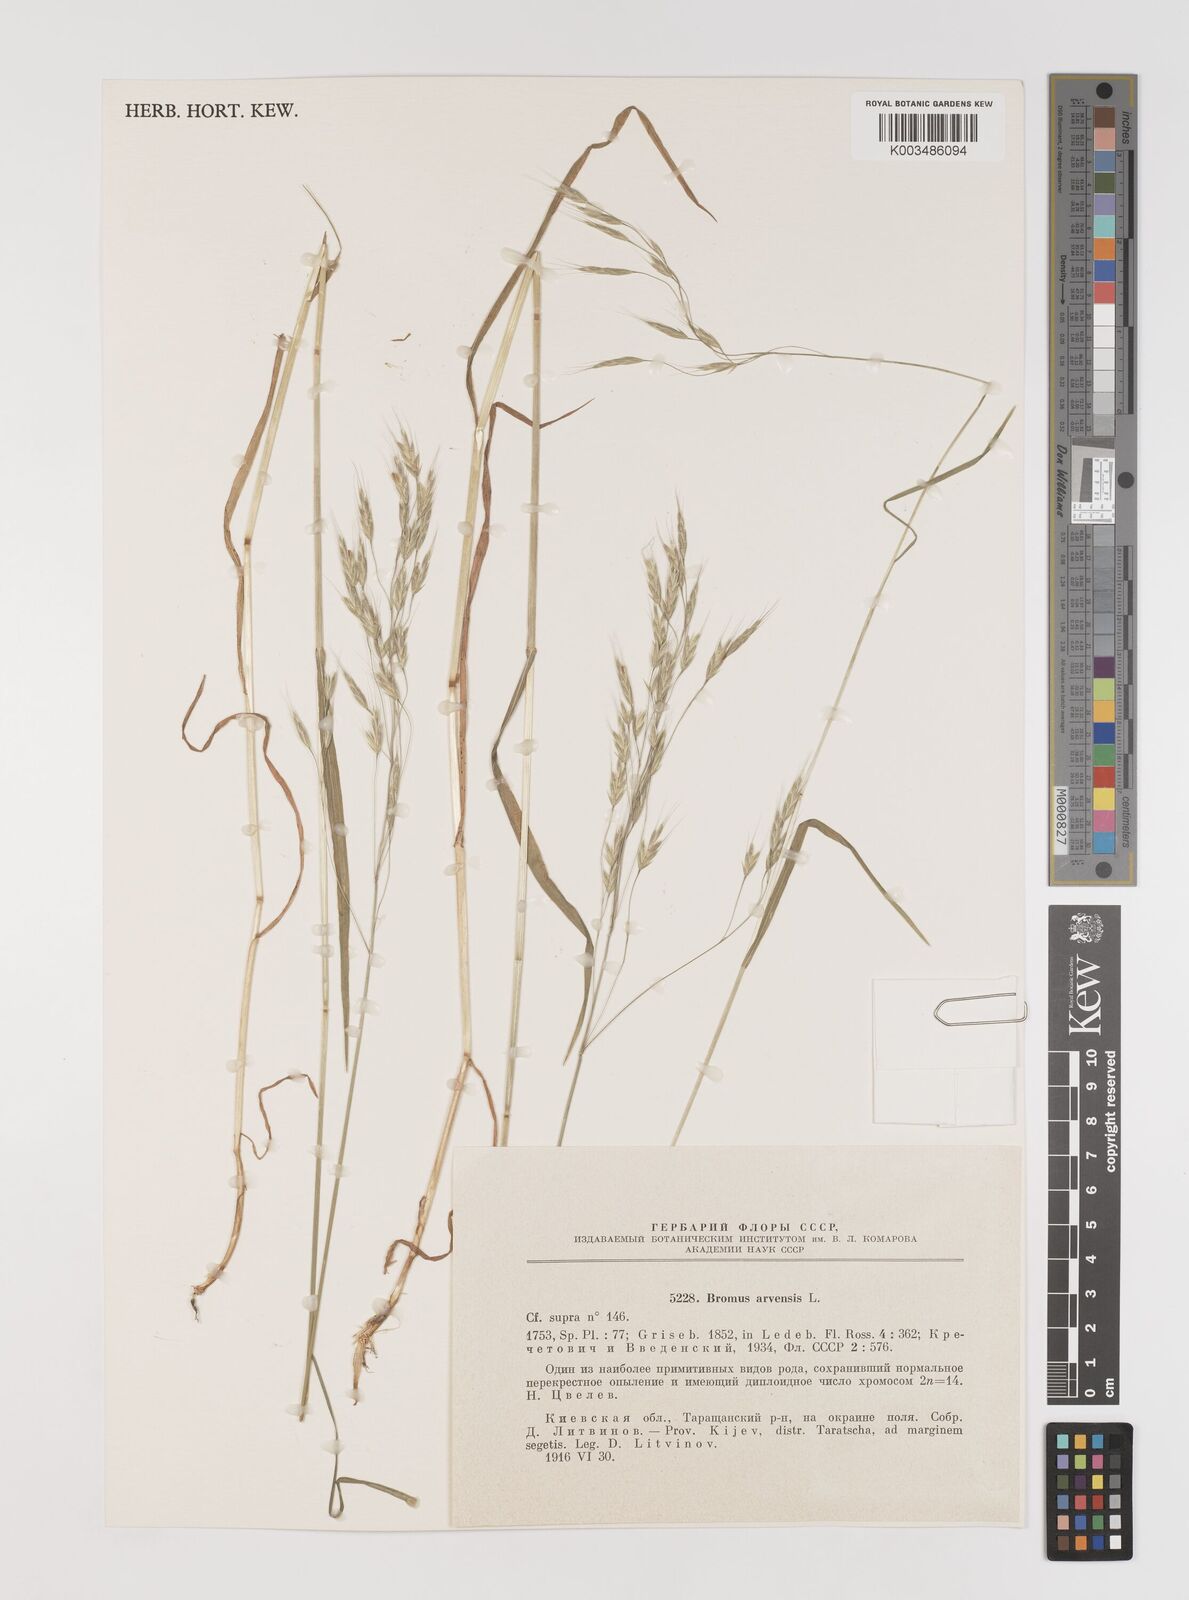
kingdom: Plantae
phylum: Tracheophyta
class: Liliopsida
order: Poales
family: Poaceae
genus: Bromus
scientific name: Bromus arvensis
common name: Field brome
